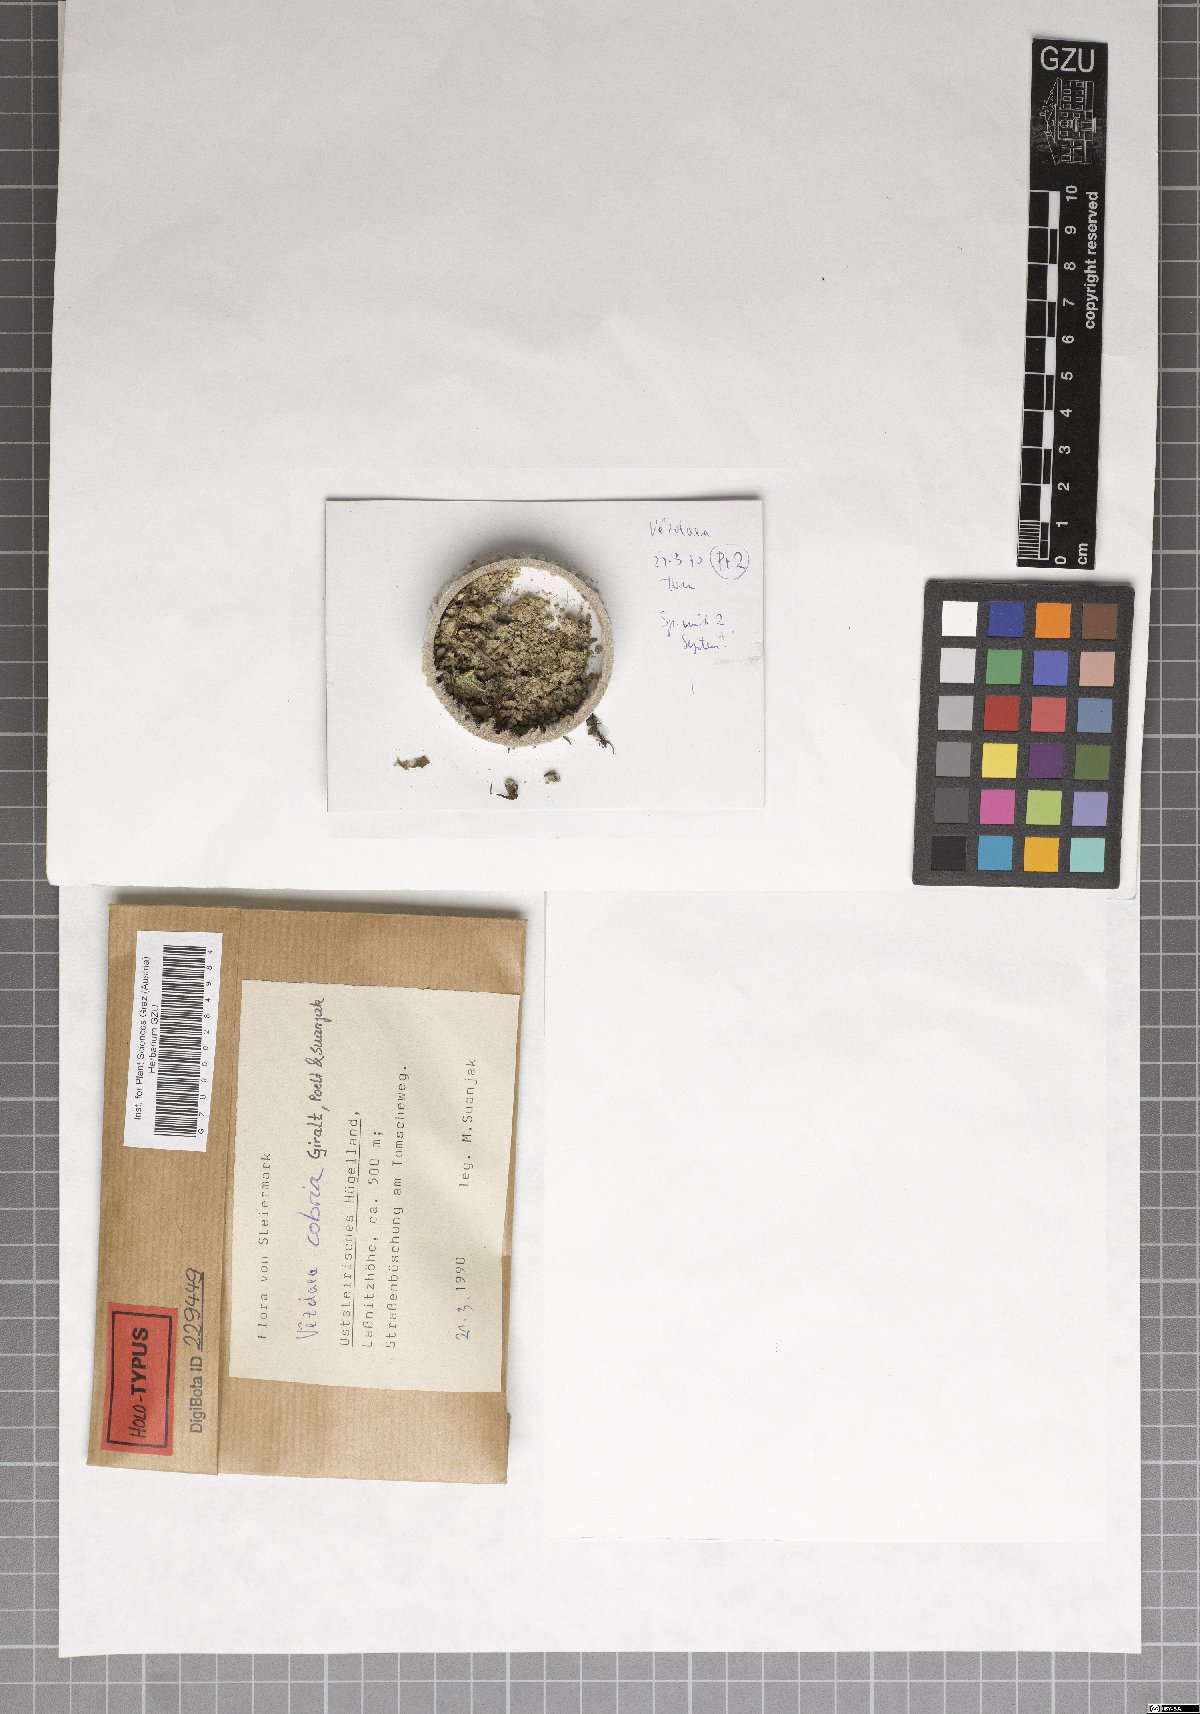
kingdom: Fungi
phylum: Ascomycota
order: Vezdaeales
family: Vezdaeaceae
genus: Vezdaea
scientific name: Vezdaea cobria
